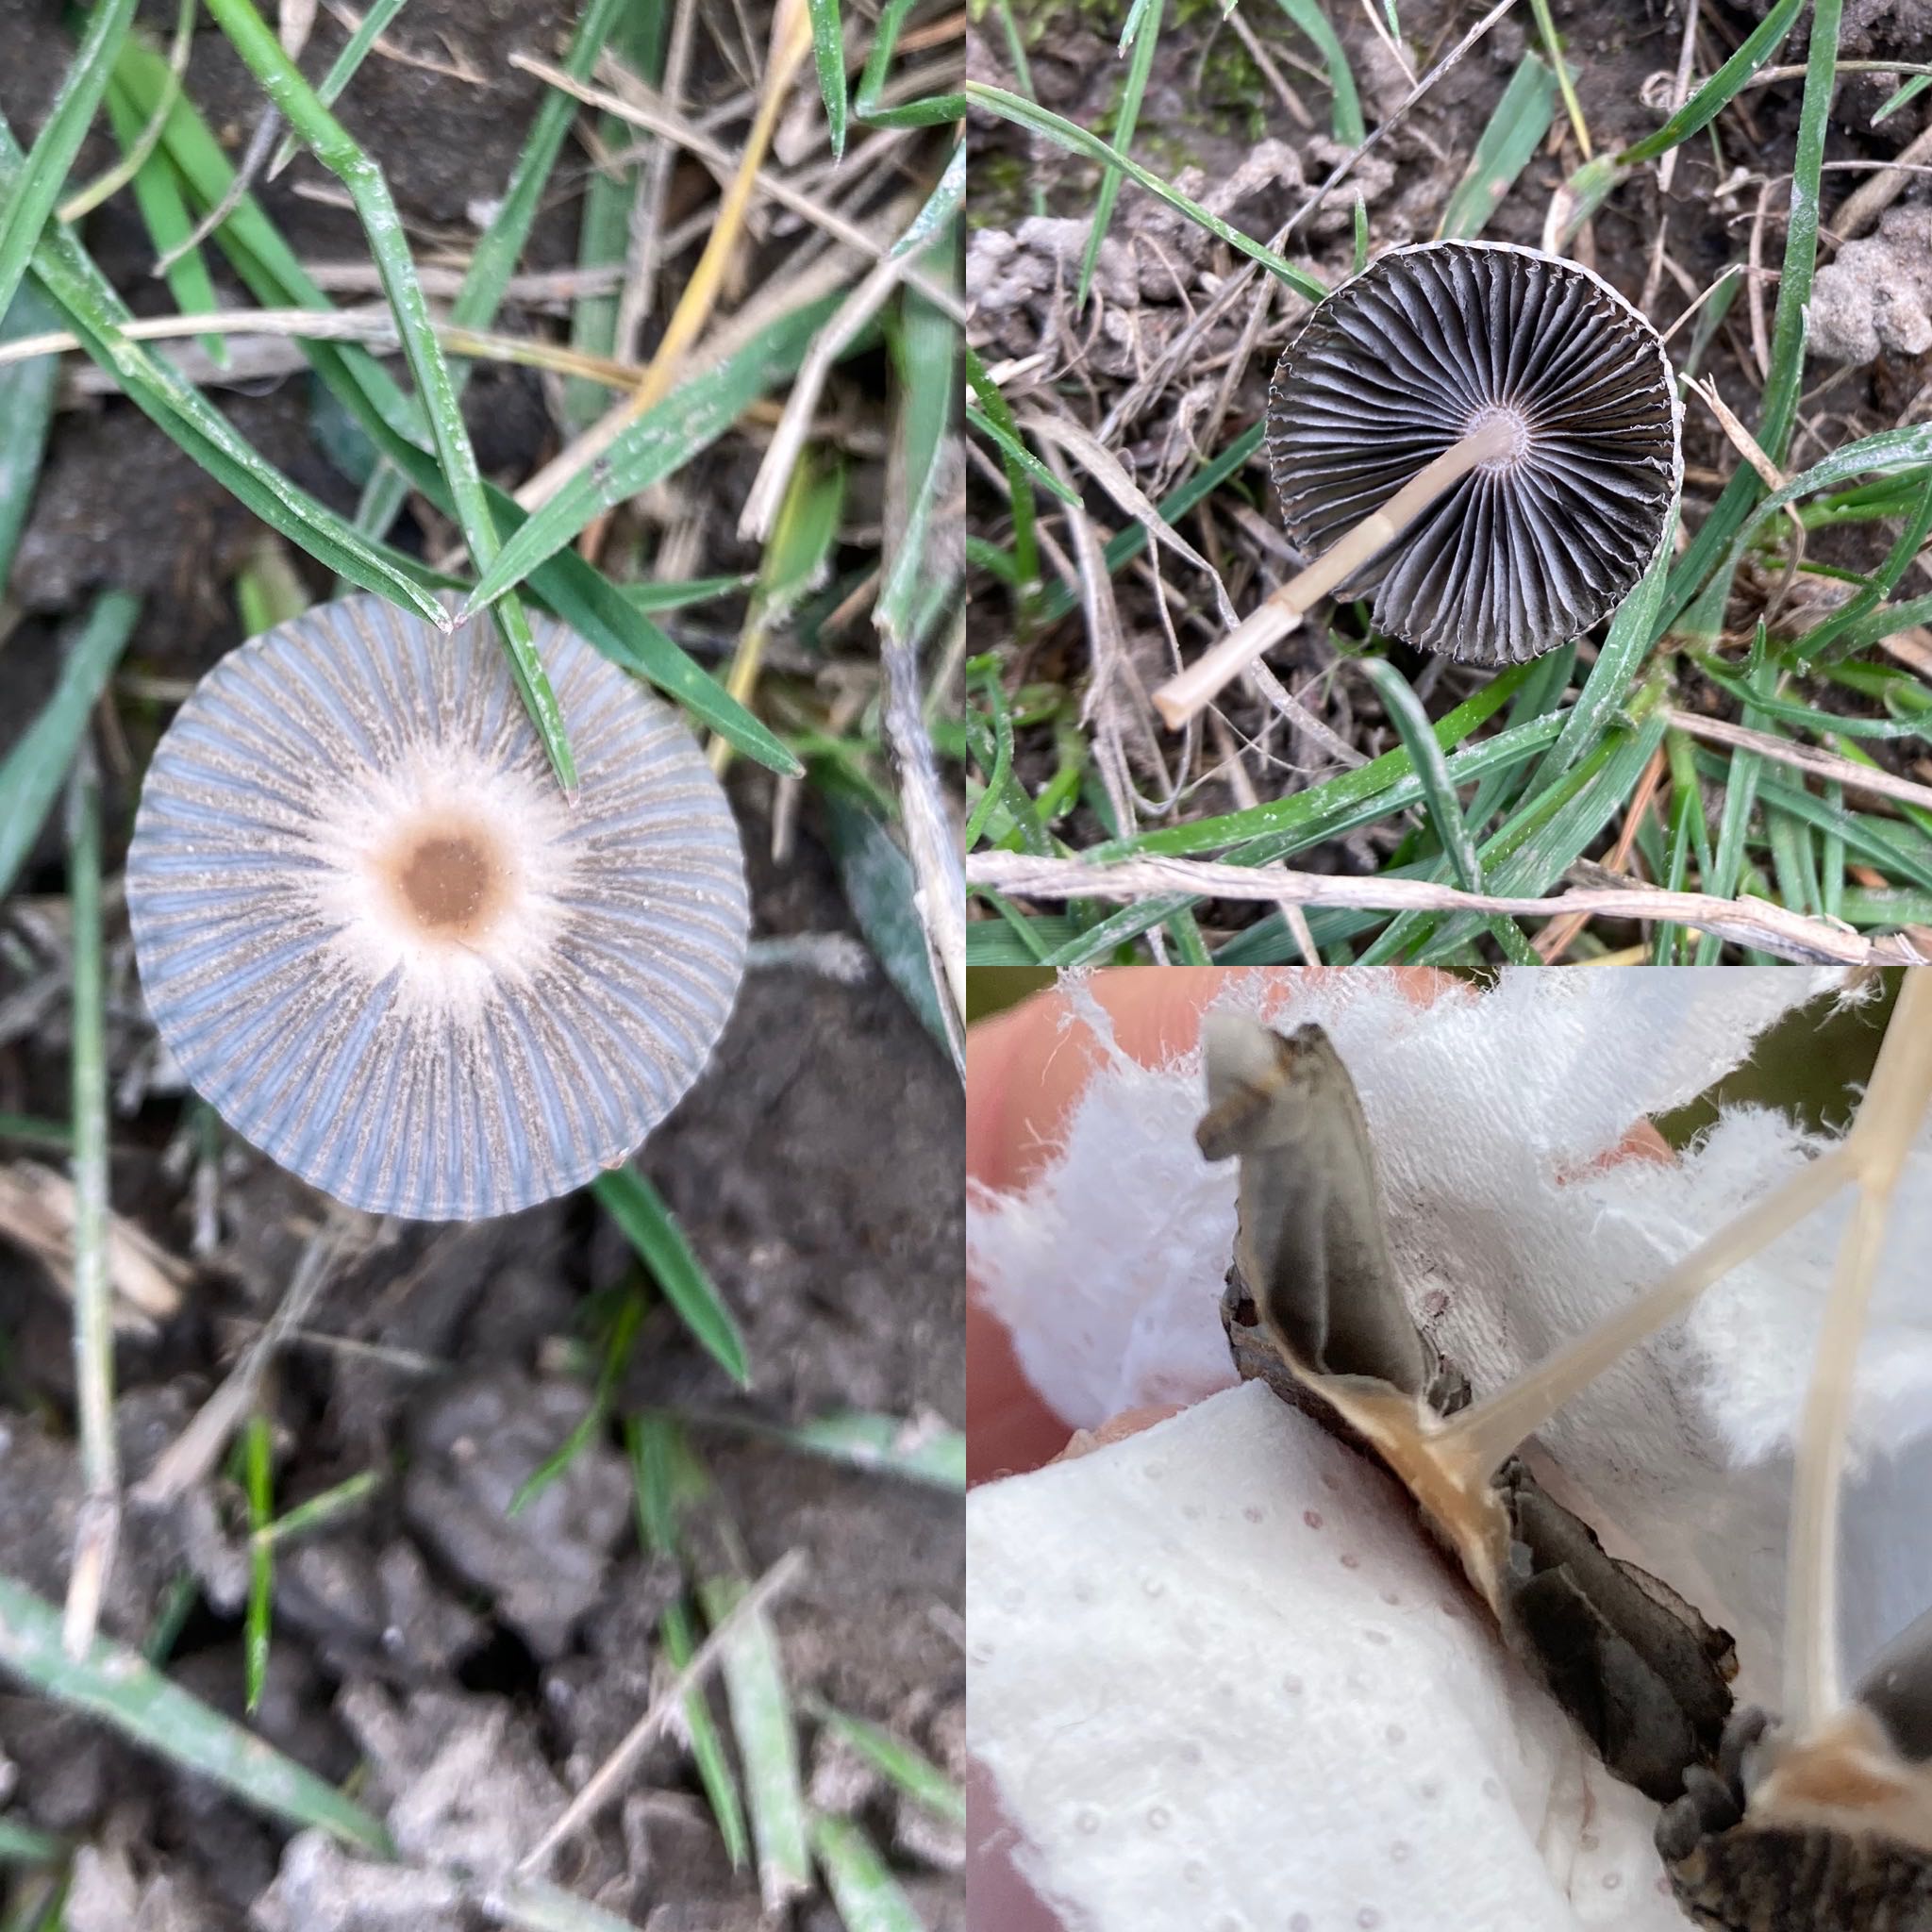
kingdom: Fungi
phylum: Basidiomycota
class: Agaricomycetes
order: Agaricales
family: Psathyrellaceae
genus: Parasola
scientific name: Parasola
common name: hjulhat
